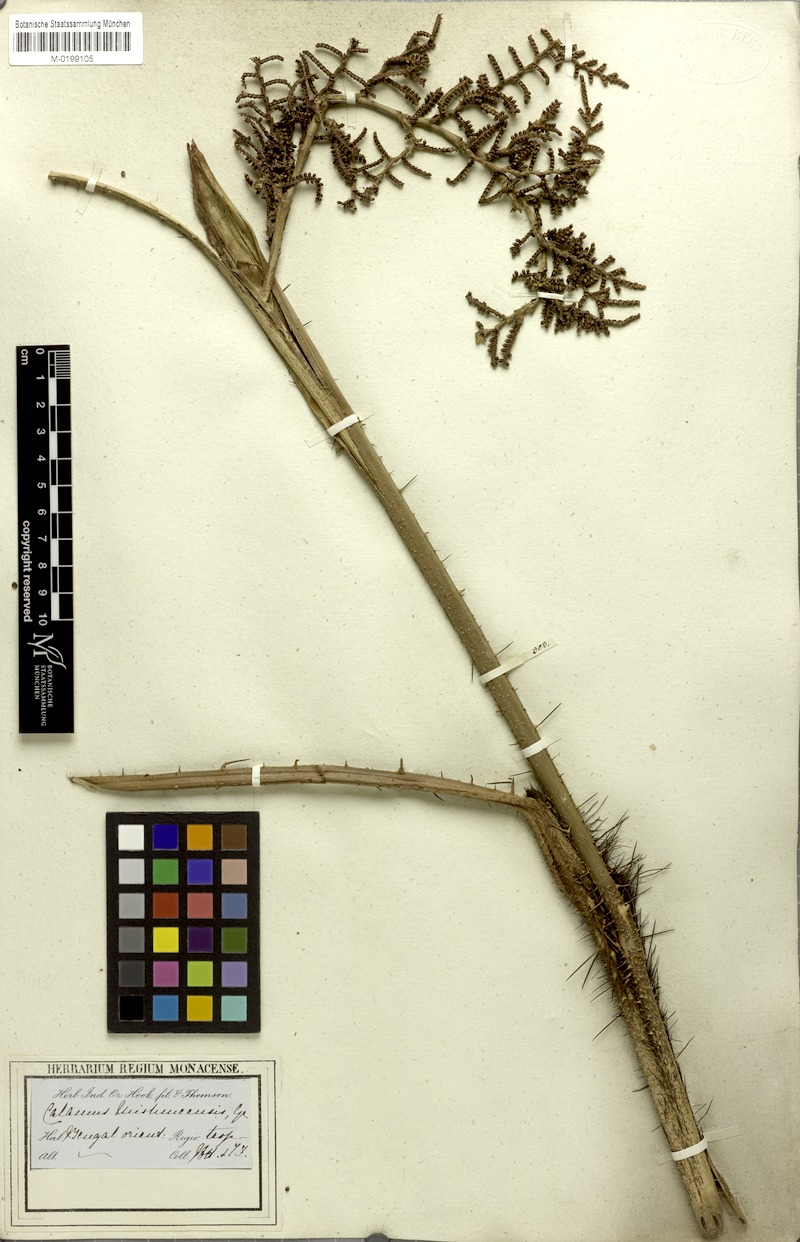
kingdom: Plantae
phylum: Tracheophyta
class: Liliopsida
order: Arecales
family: Arecaceae
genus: Calamus
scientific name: Calamus floribundus
